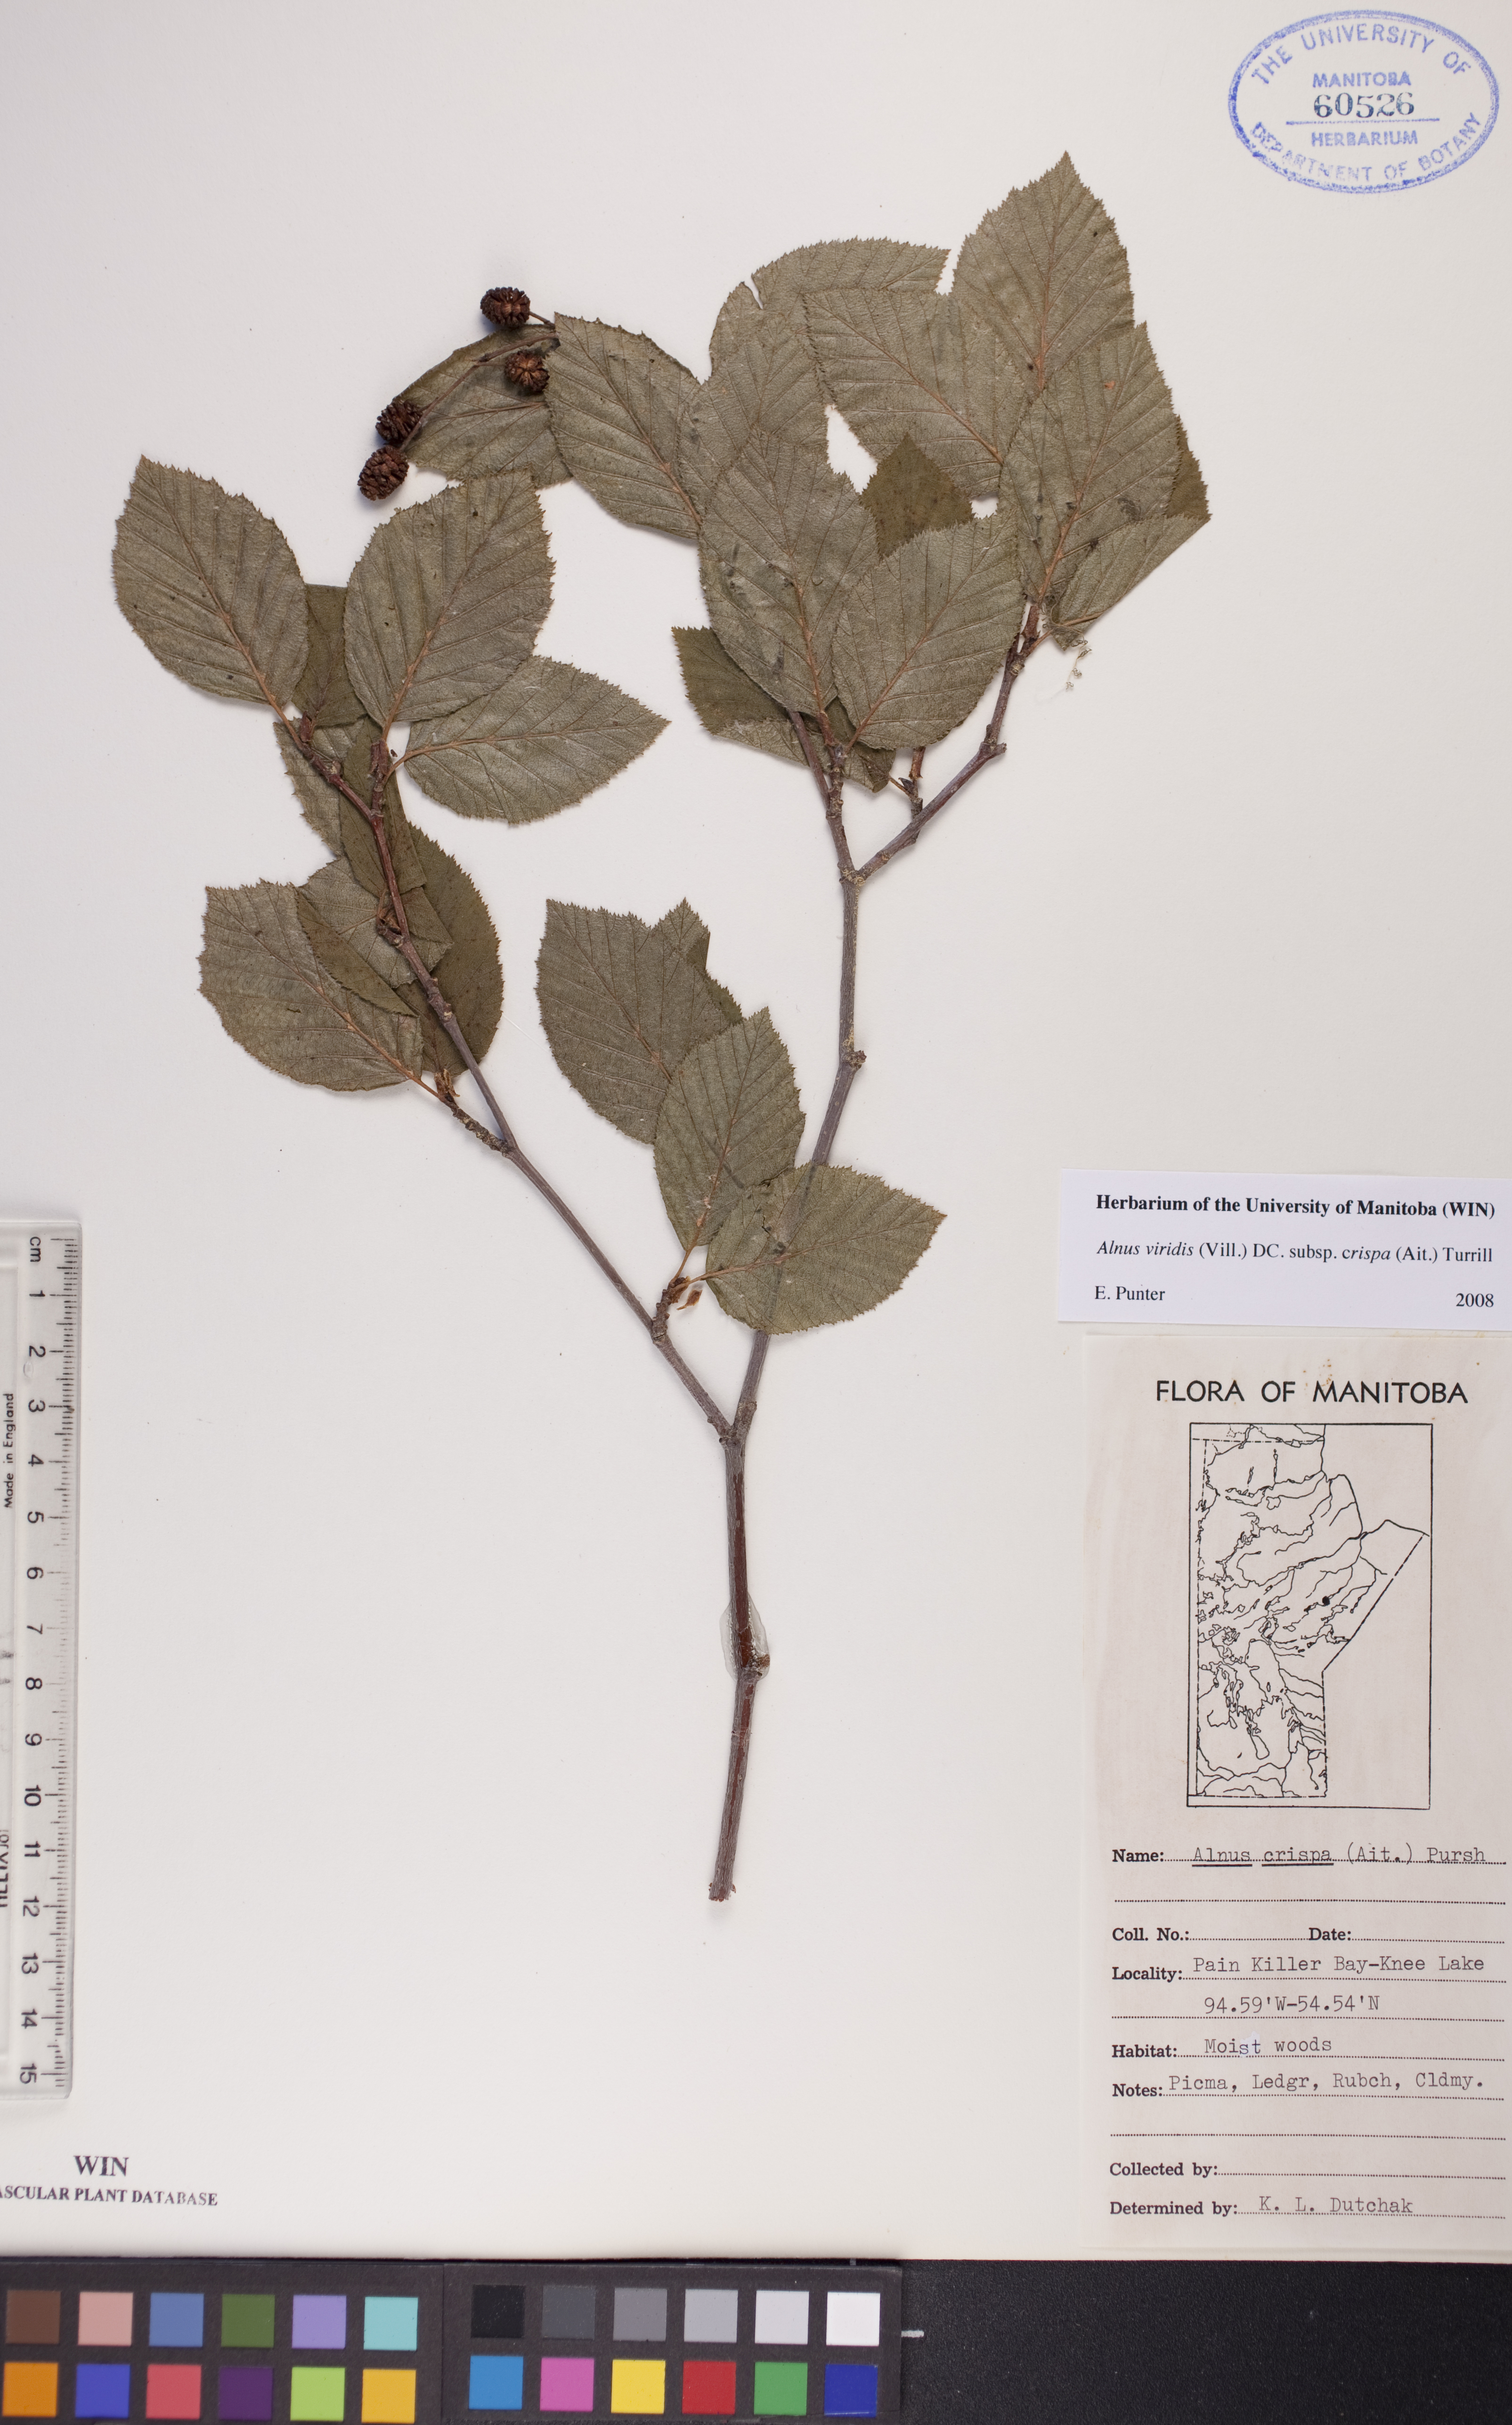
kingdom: Plantae
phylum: Tracheophyta
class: Magnoliopsida
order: Fagales
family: Betulaceae
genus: Alnus
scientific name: Alnus alnobetula
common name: Green alder
